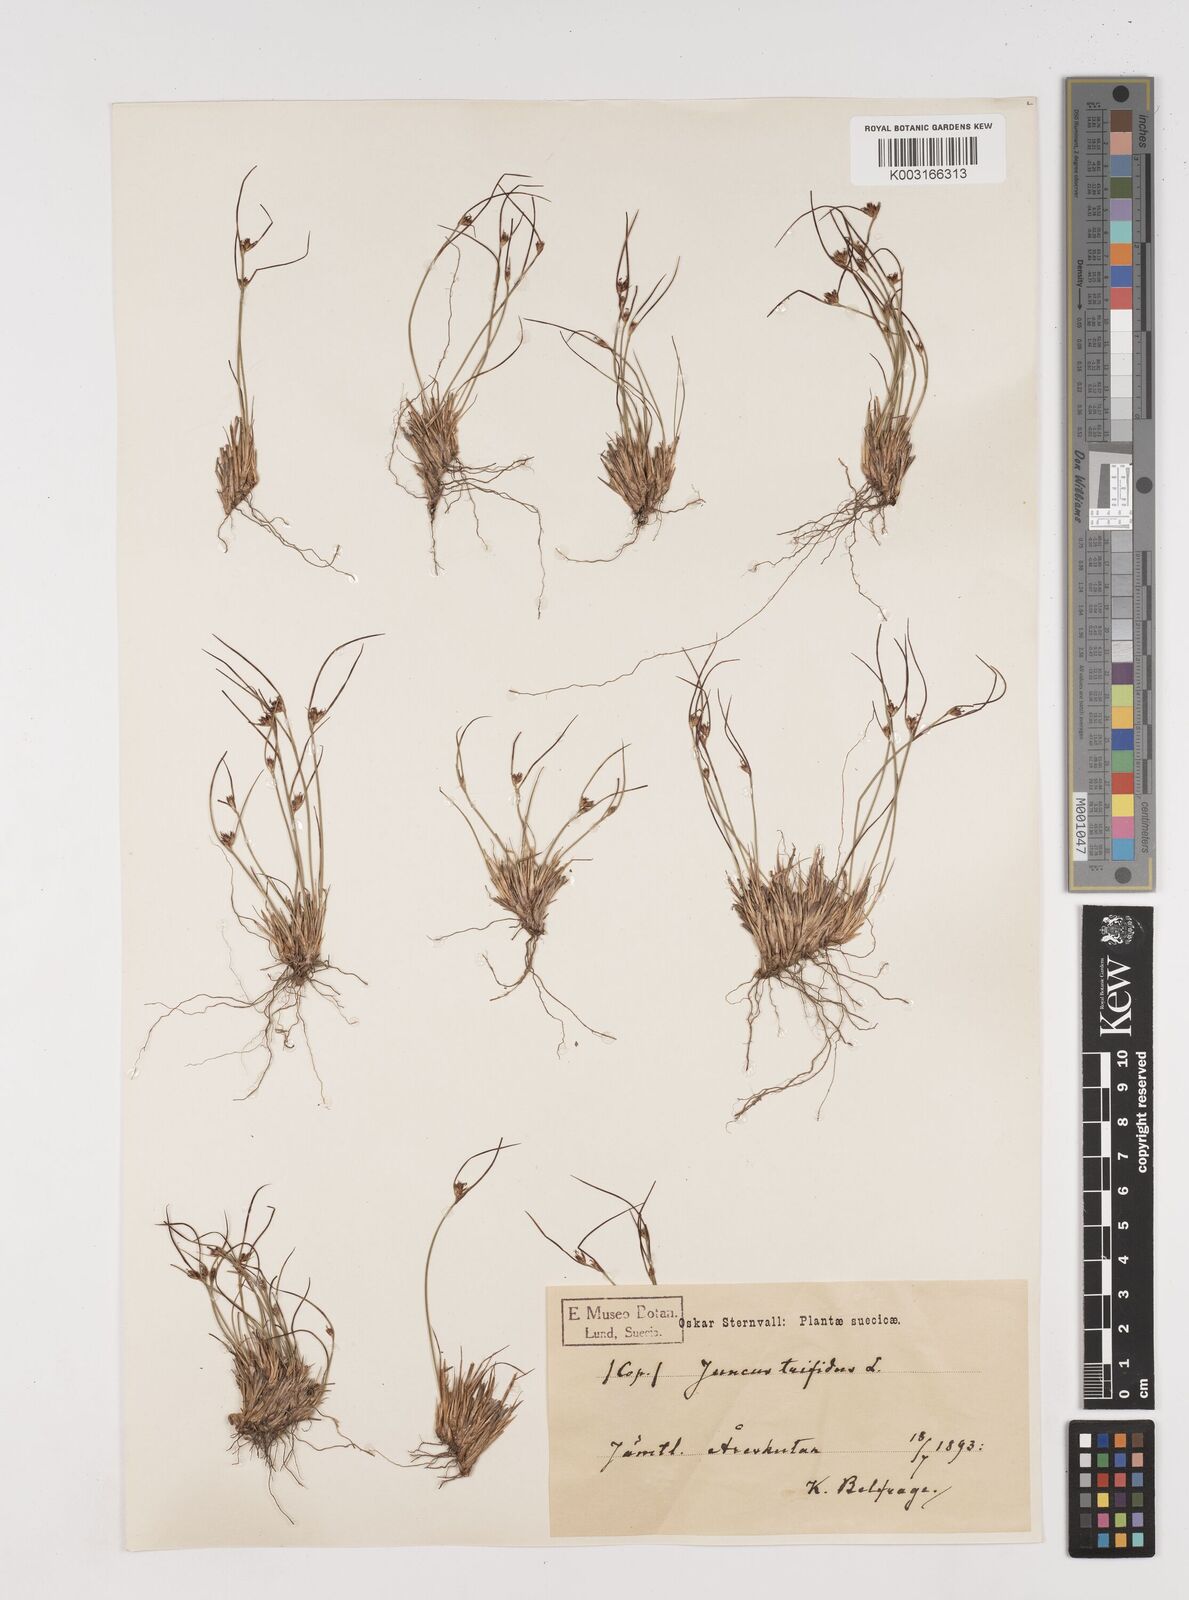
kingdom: Plantae
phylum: Tracheophyta
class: Liliopsida
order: Poales
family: Juncaceae
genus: Oreojuncus
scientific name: Oreojuncus trifidus
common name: Highland rush
